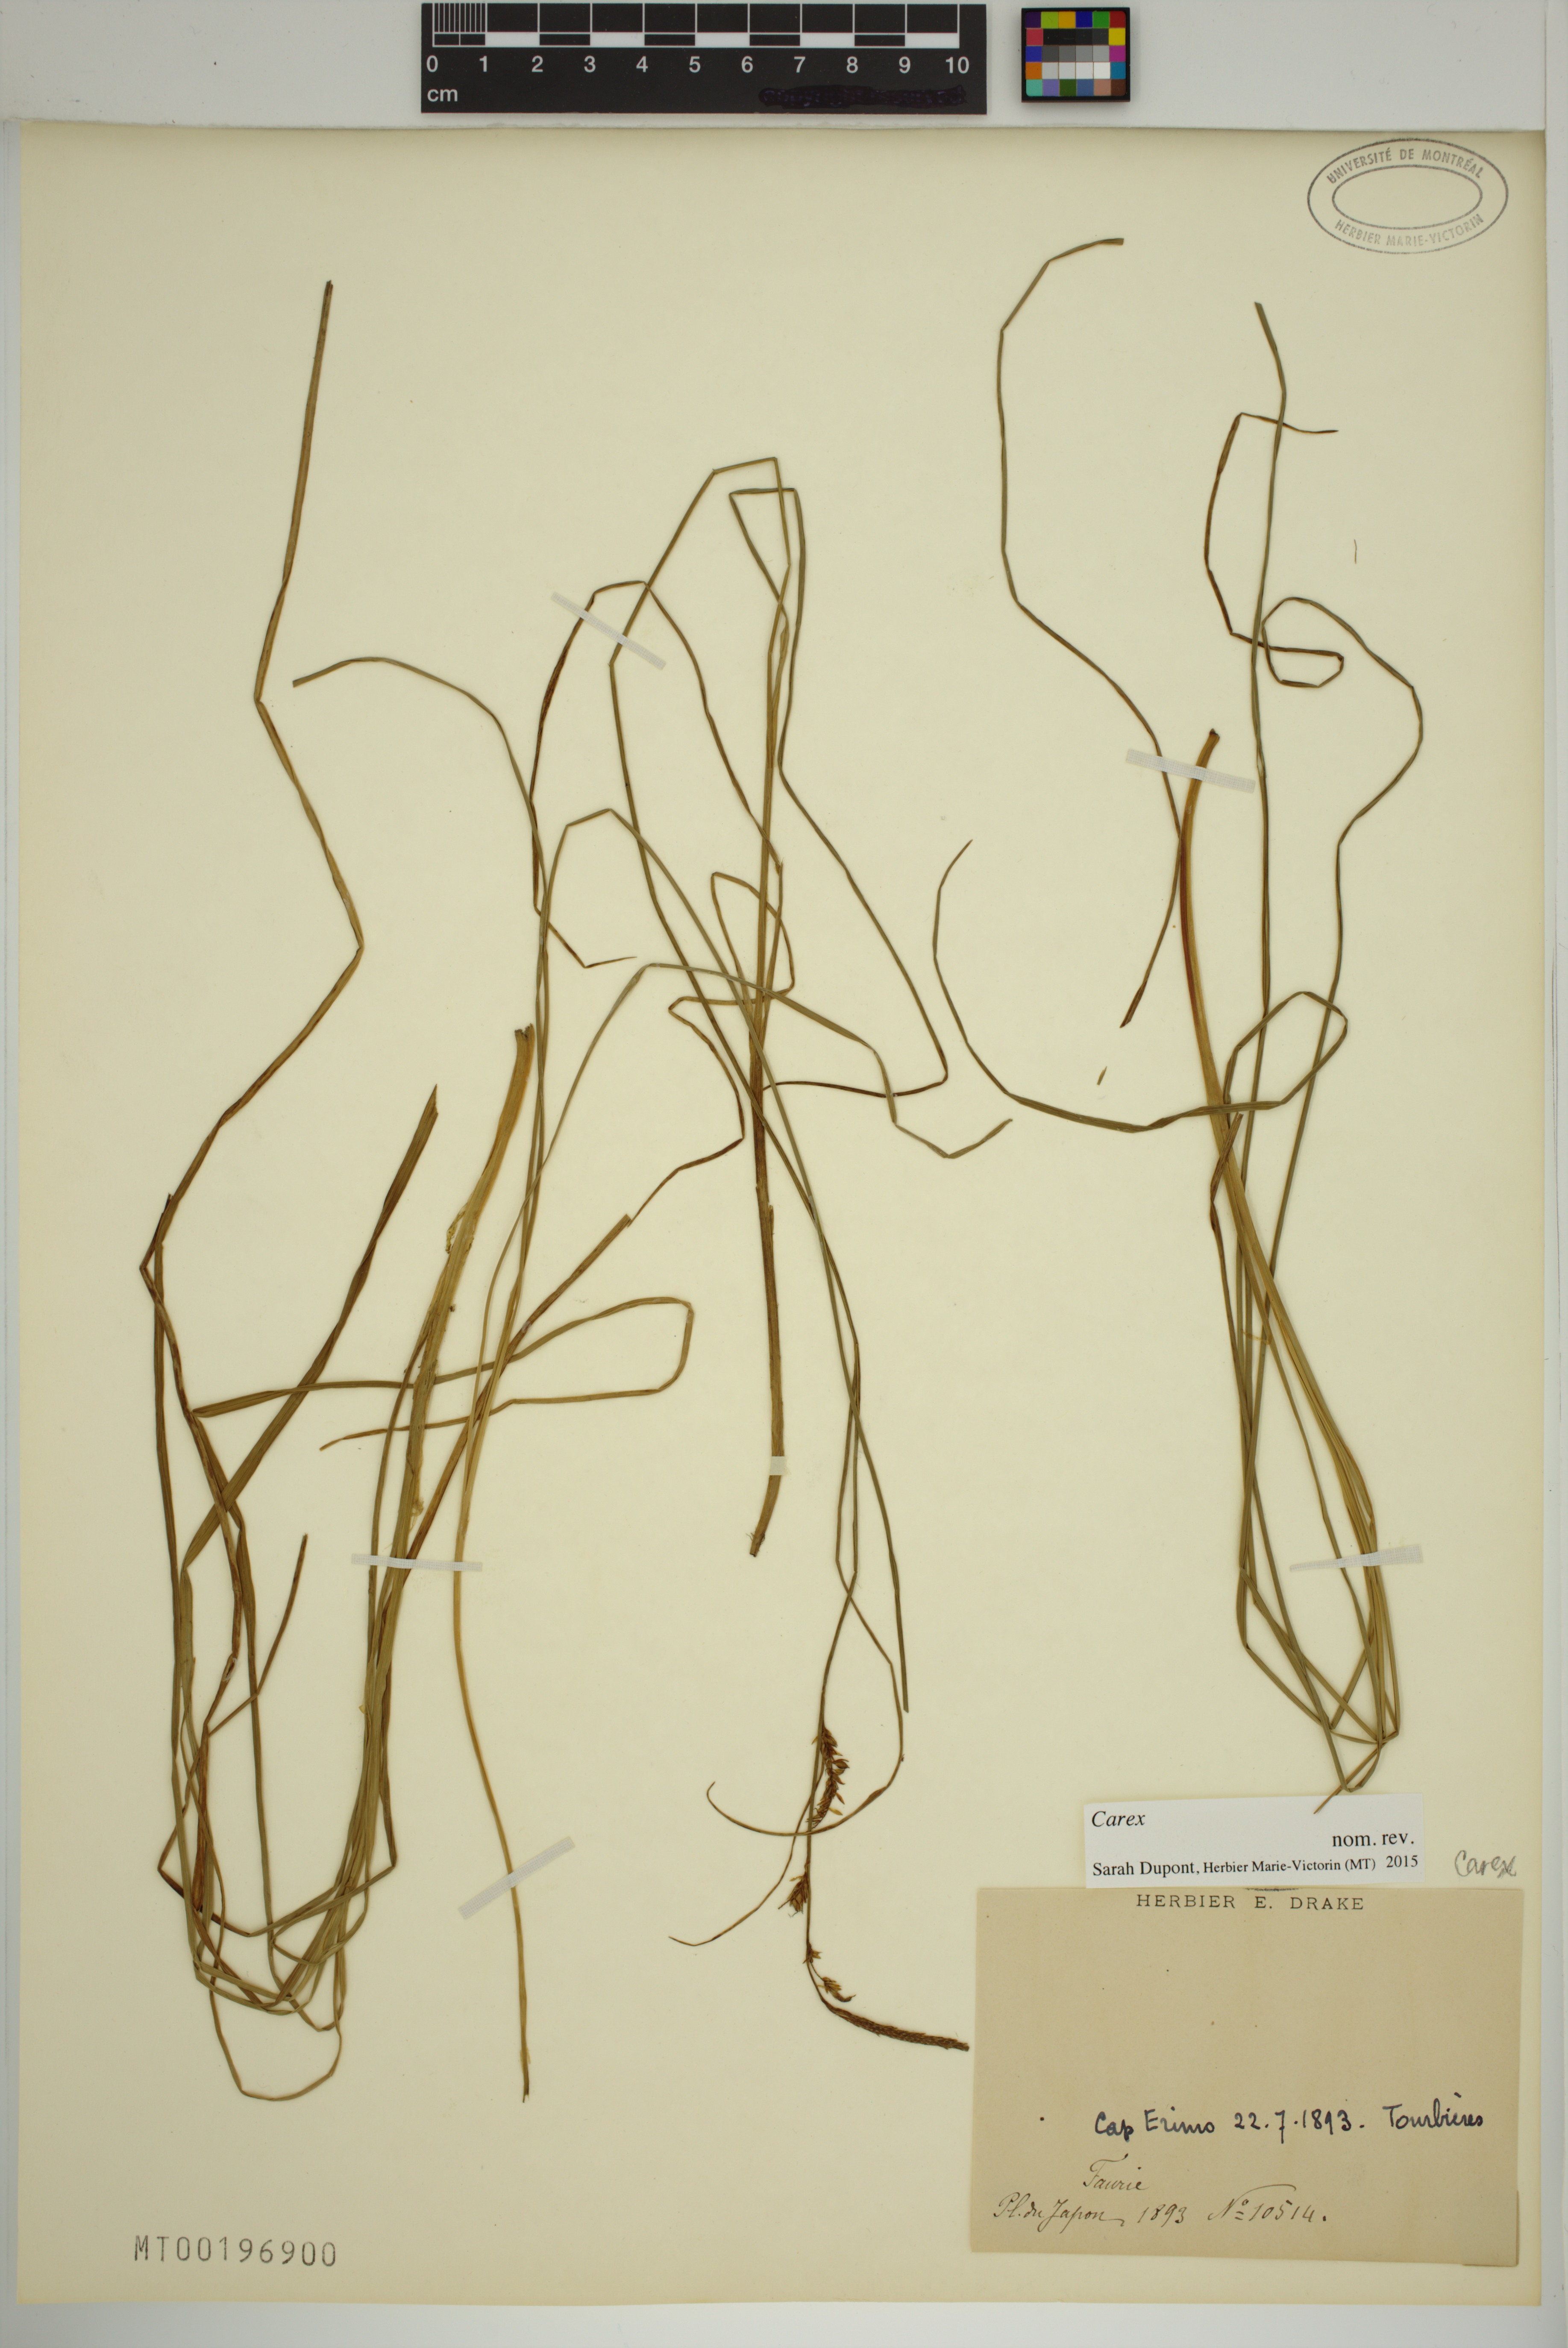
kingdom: Plantae
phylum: Tracheophyta
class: Liliopsida
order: Poales
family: Cyperaceae
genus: Carex
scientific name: Carex
